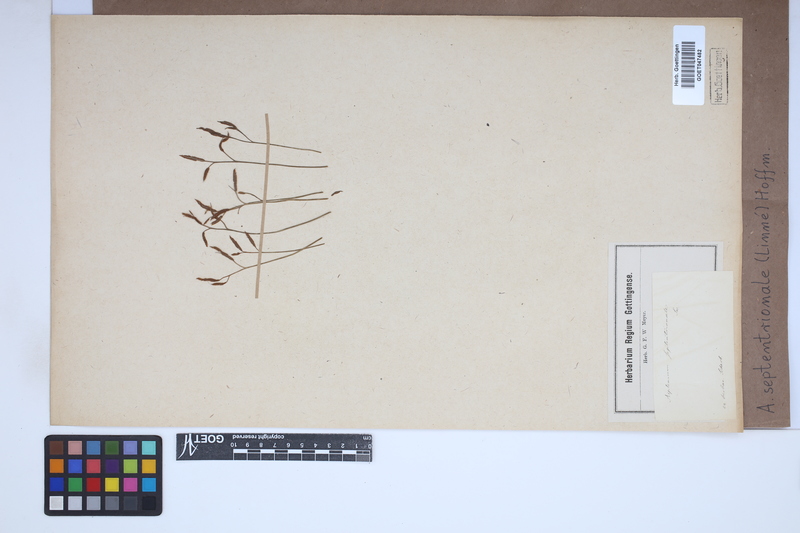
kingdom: Plantae
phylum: Tracheophyta
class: Polypodiopsida
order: Polypodiales
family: Aspleniaceae
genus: Asplenium
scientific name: Asplenium septentrionale
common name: Forked spleenwort
